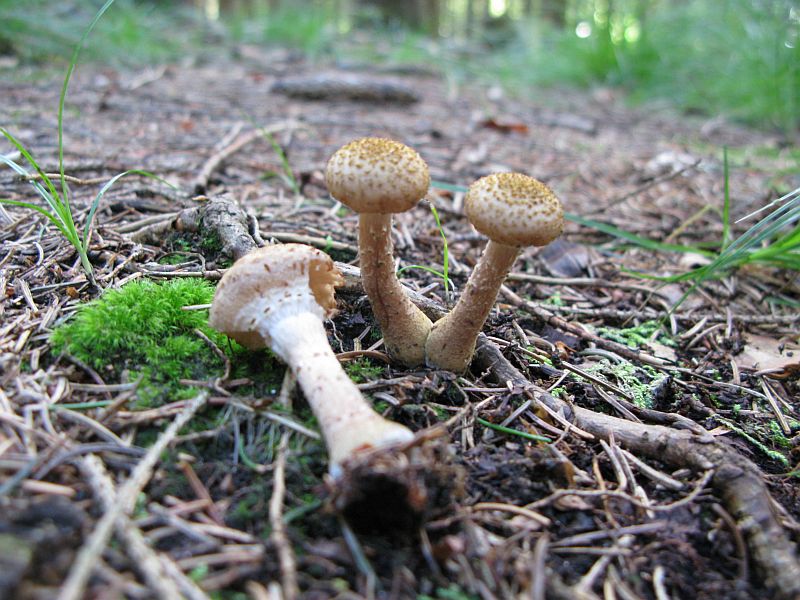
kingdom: Fungi
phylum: Basidiomycota
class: Agaricomycetes
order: Agaricales
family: Physalacriaceae
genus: Armillaria
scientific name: Armillaria ostoyae
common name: mørk honningsvamp
